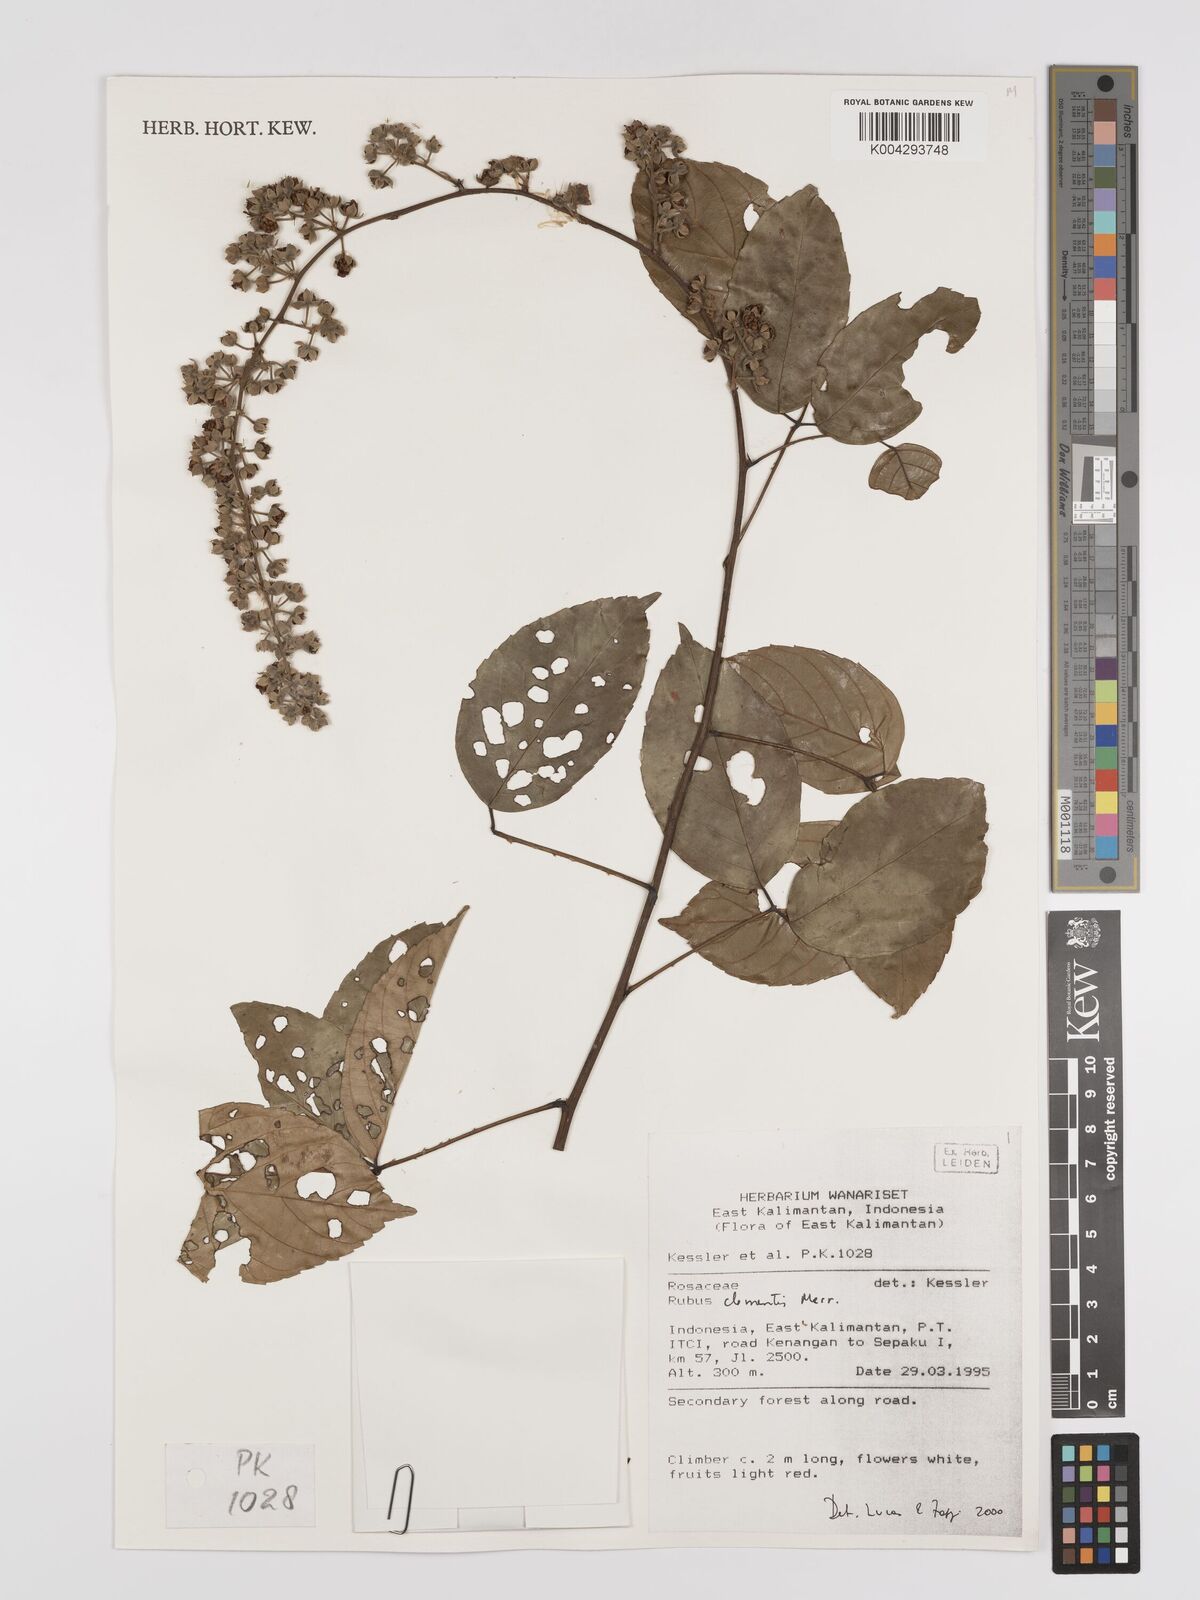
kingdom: Plantae
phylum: Tracheophyta
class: Magnoliopsida
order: Rosales
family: Rosaceae
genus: Rubus
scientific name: Rubus clementis
